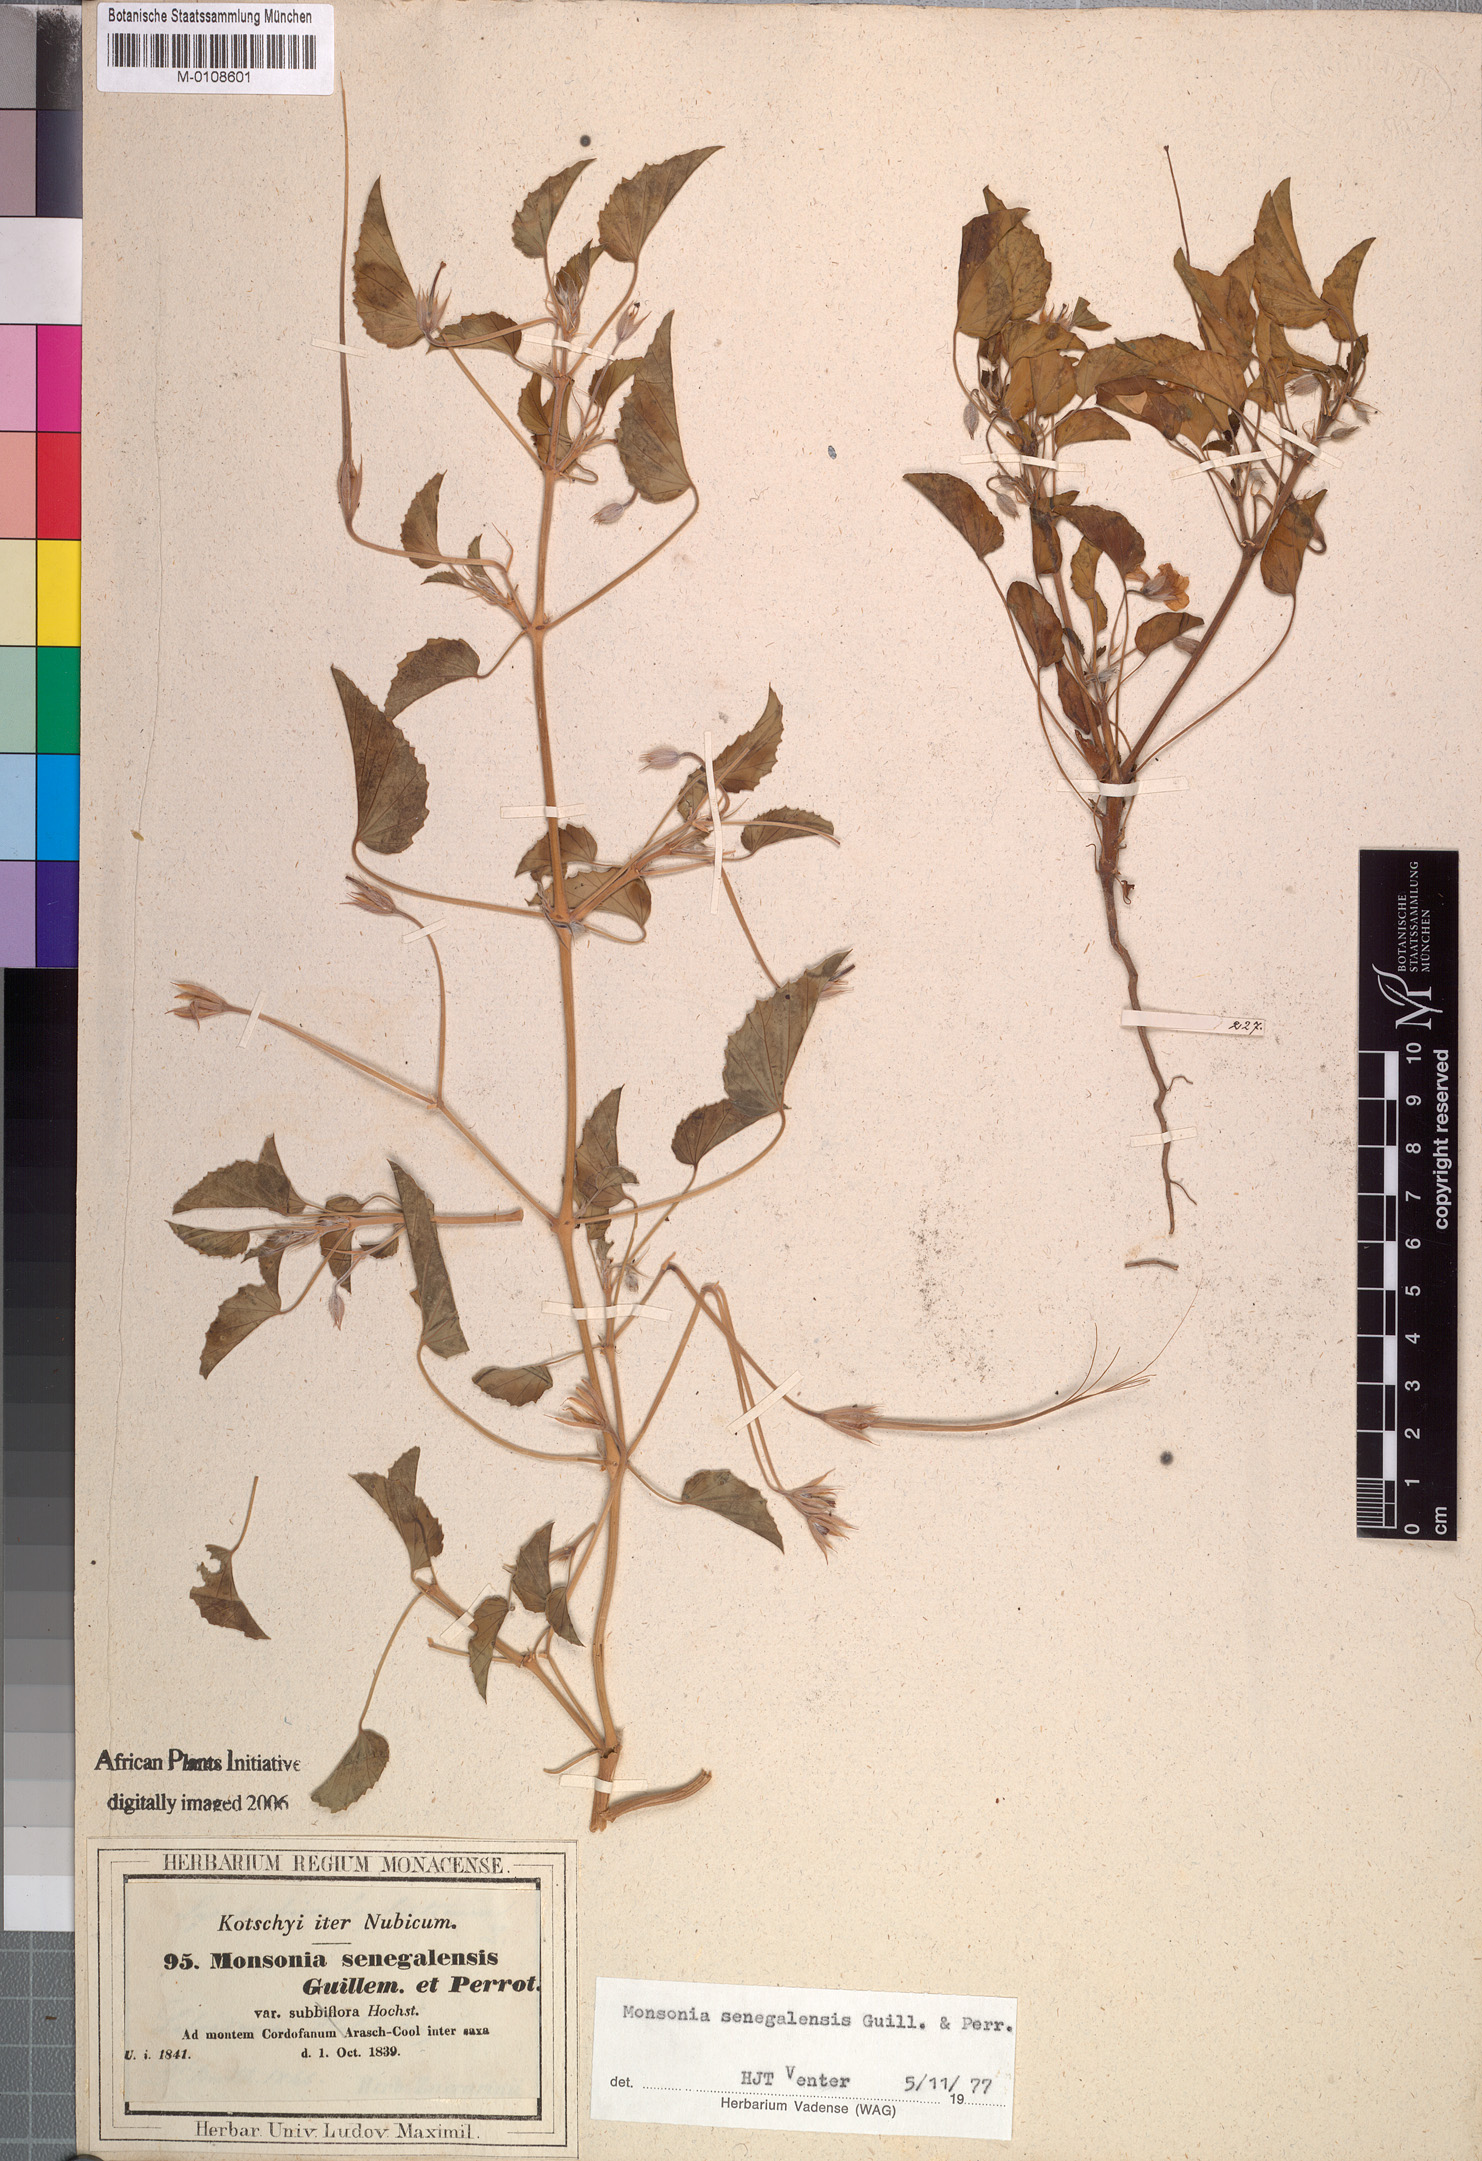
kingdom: Plantae
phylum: Tracheophyta
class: Magnoliopsida
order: Geraniales
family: Geraniaceae
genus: Monsonia
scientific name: Monsonia senegalensis
